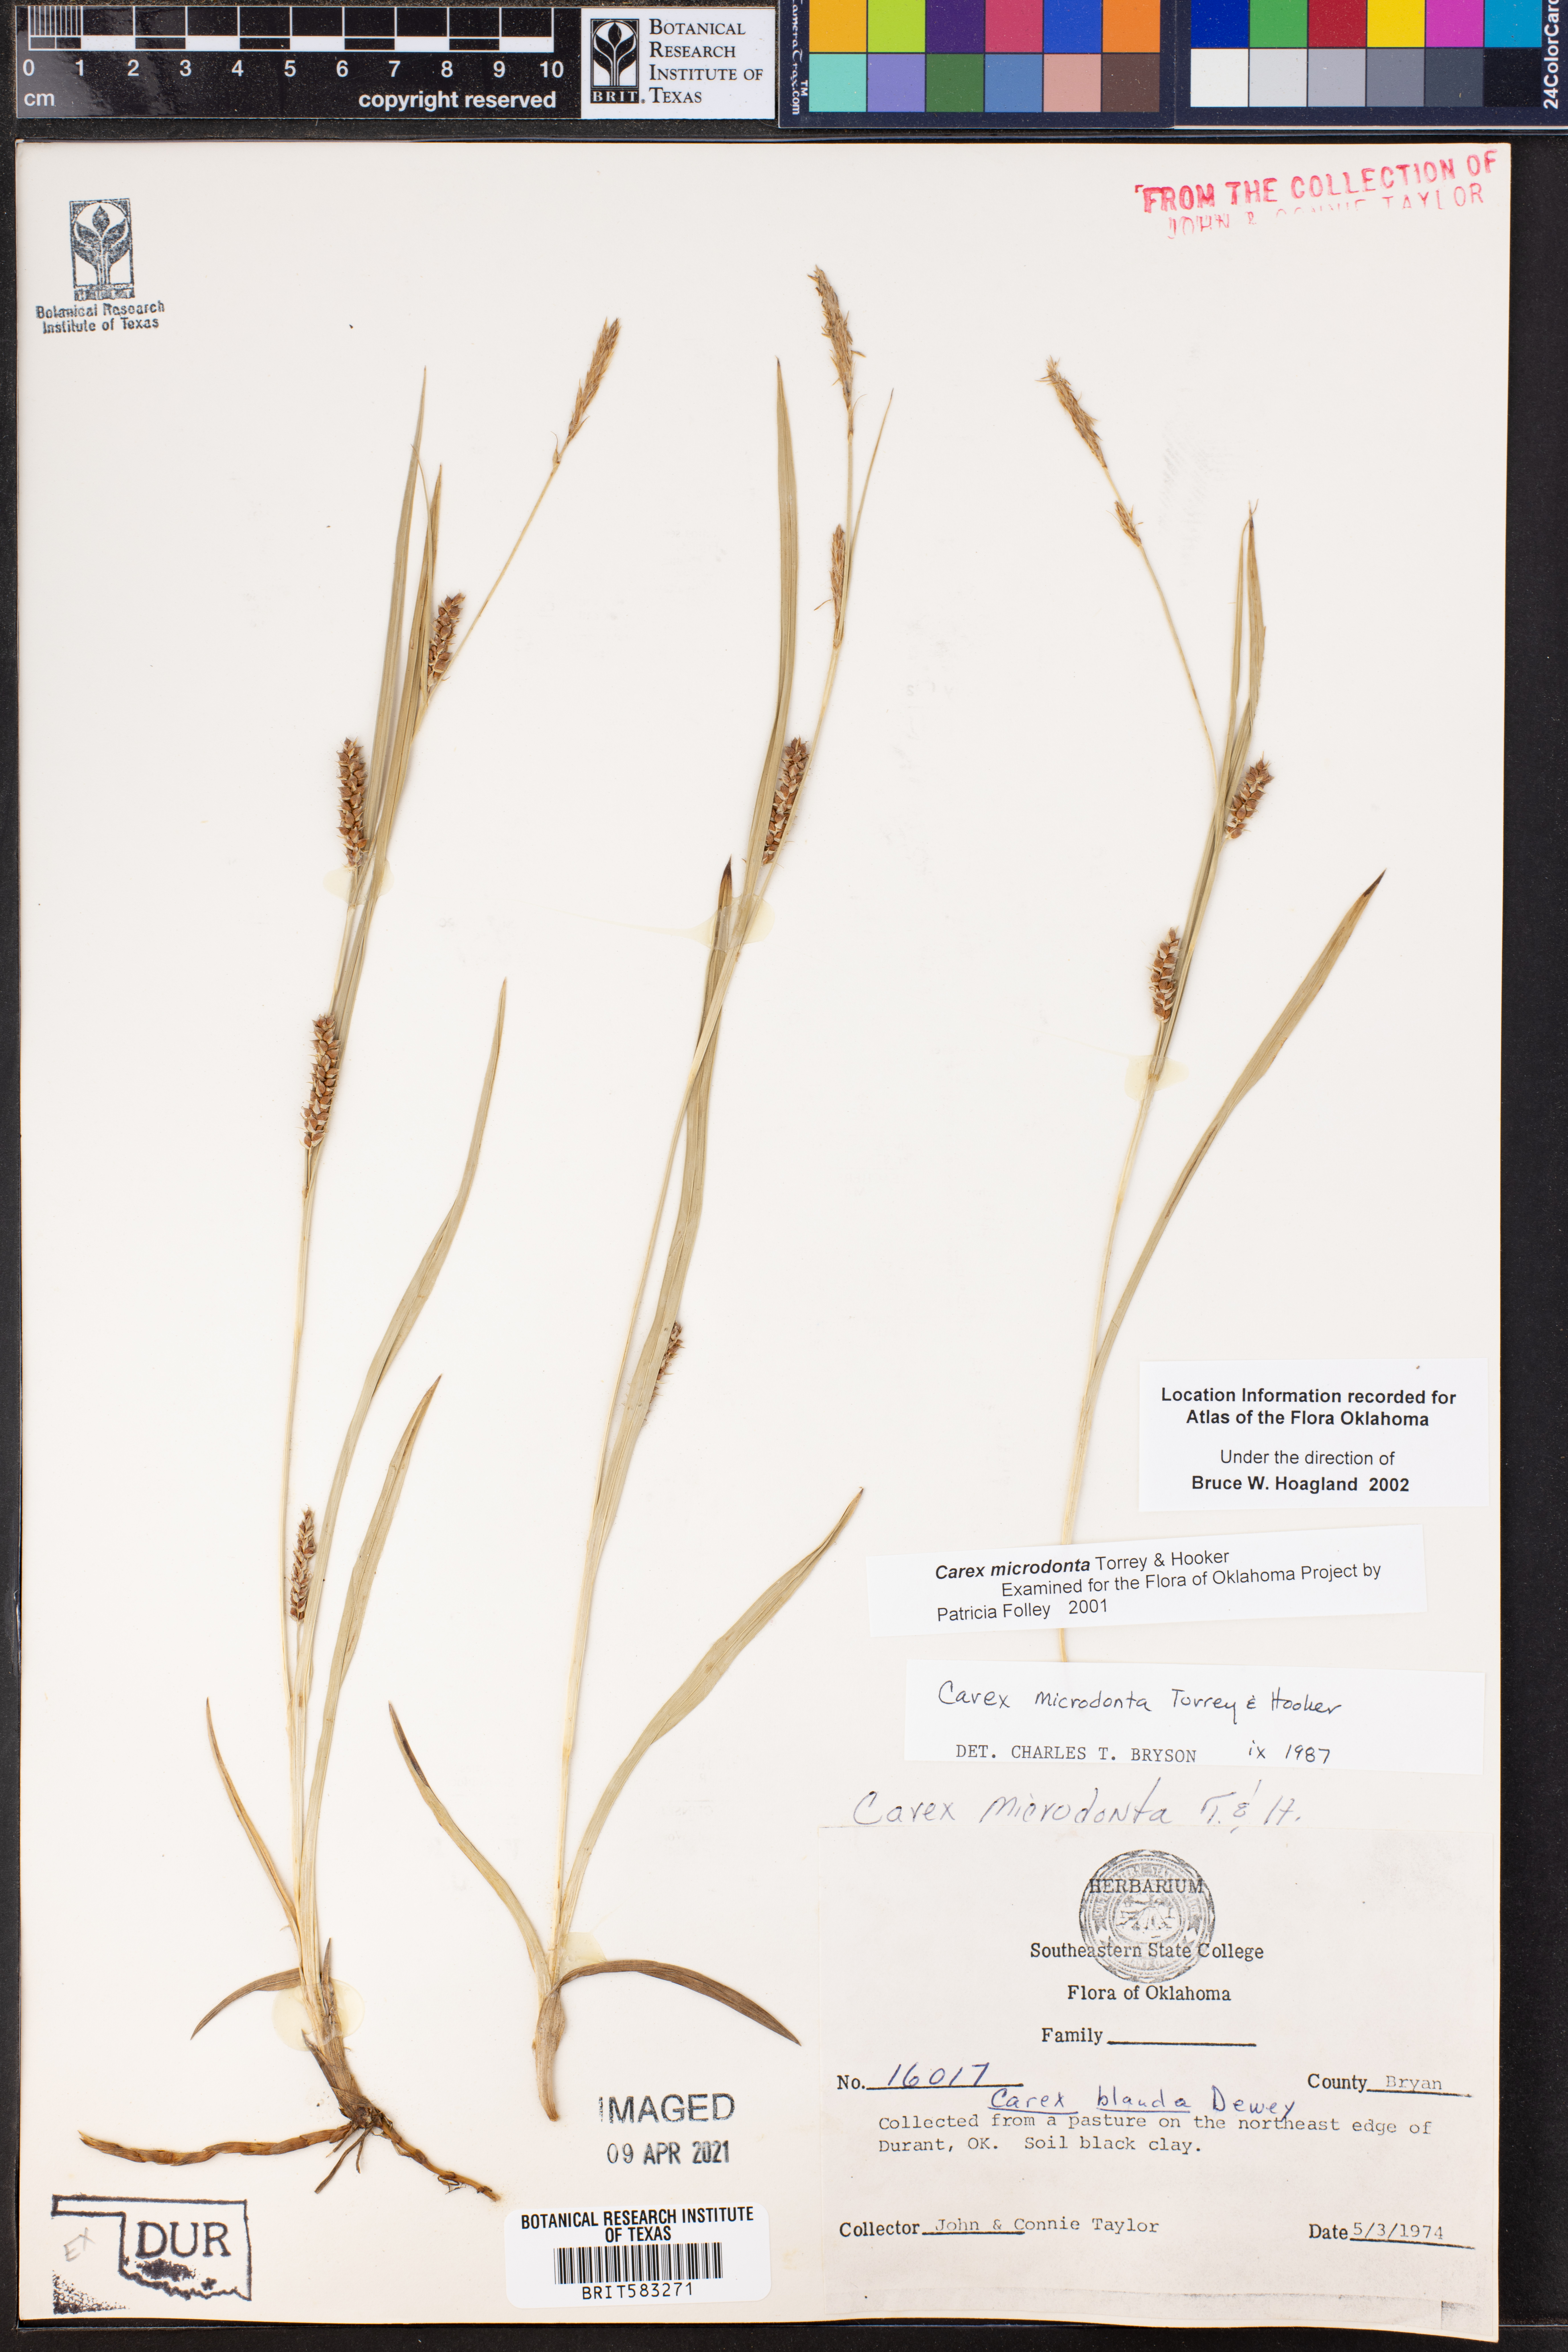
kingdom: Plantae
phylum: Tracheophyta
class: Liliopsida
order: Poales
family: Cyperaceae
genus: Carex
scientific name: Carex microdonta
